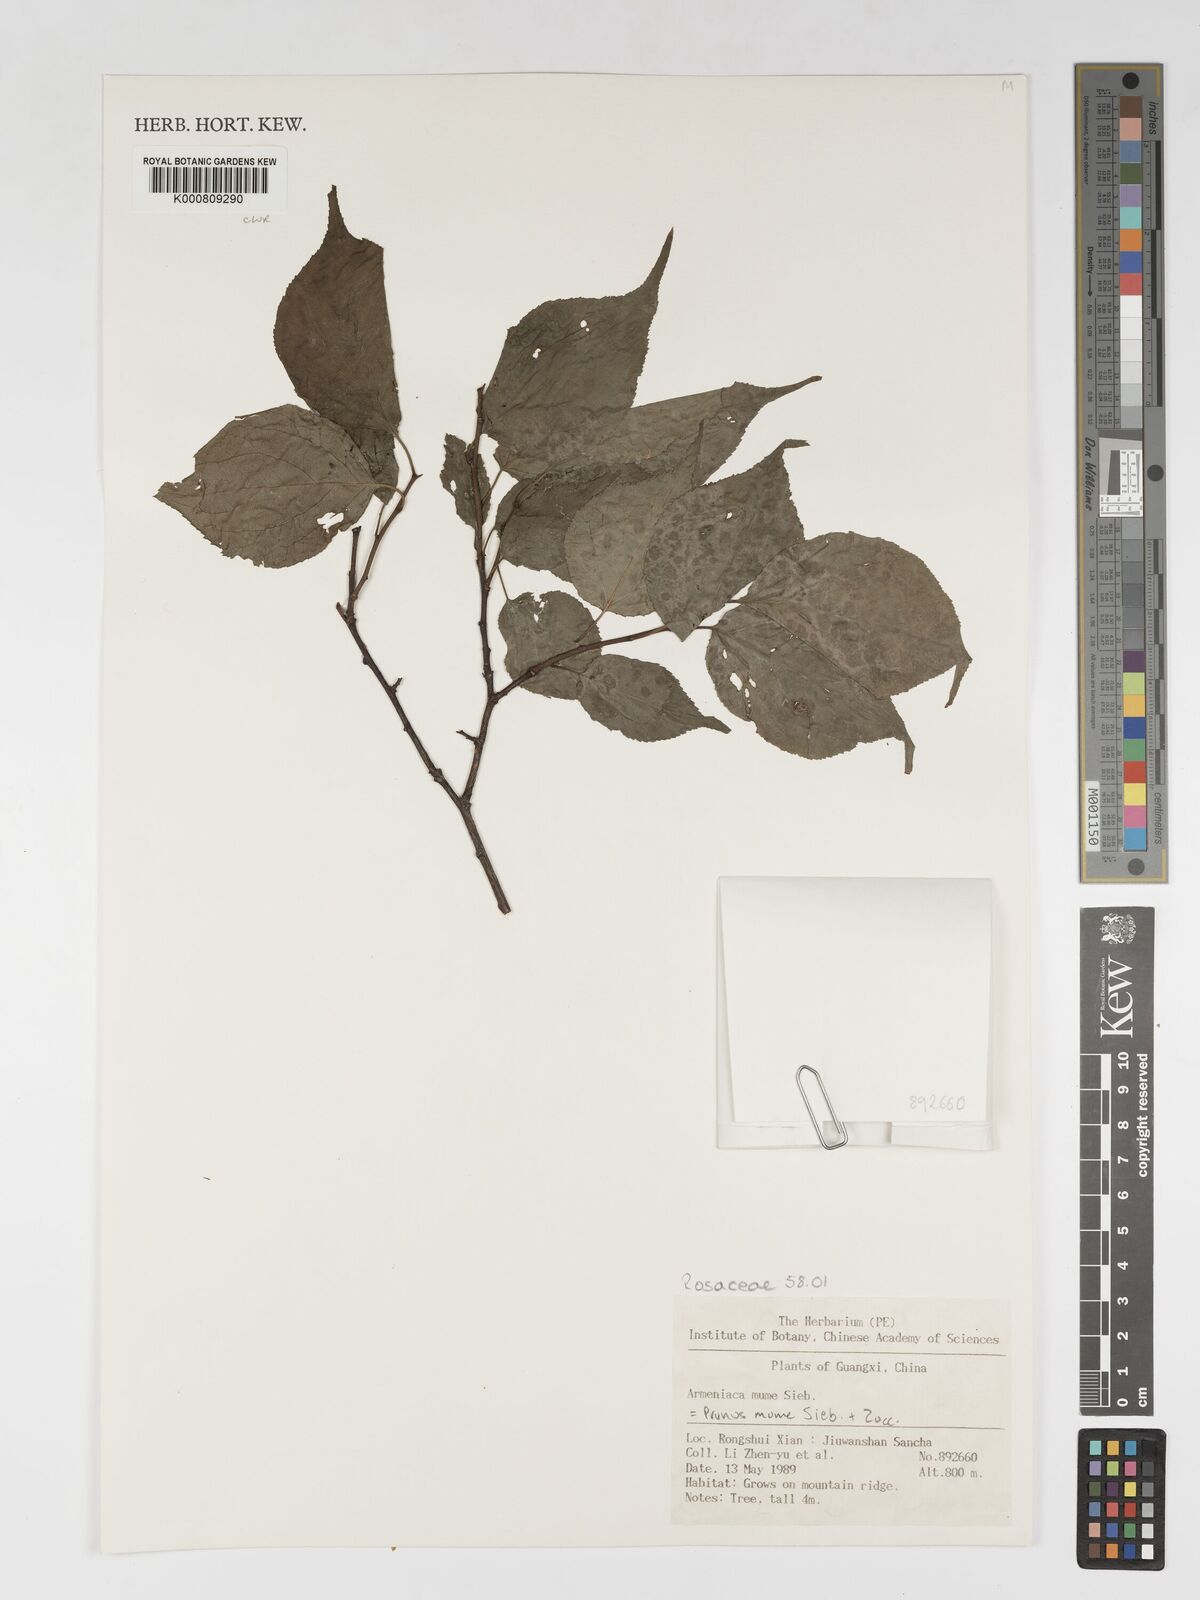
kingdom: Plantae
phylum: Tracheophyta
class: Magnoliopsida
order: Rosales
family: Rosaceae
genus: Armeniaca
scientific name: Armeniaca
